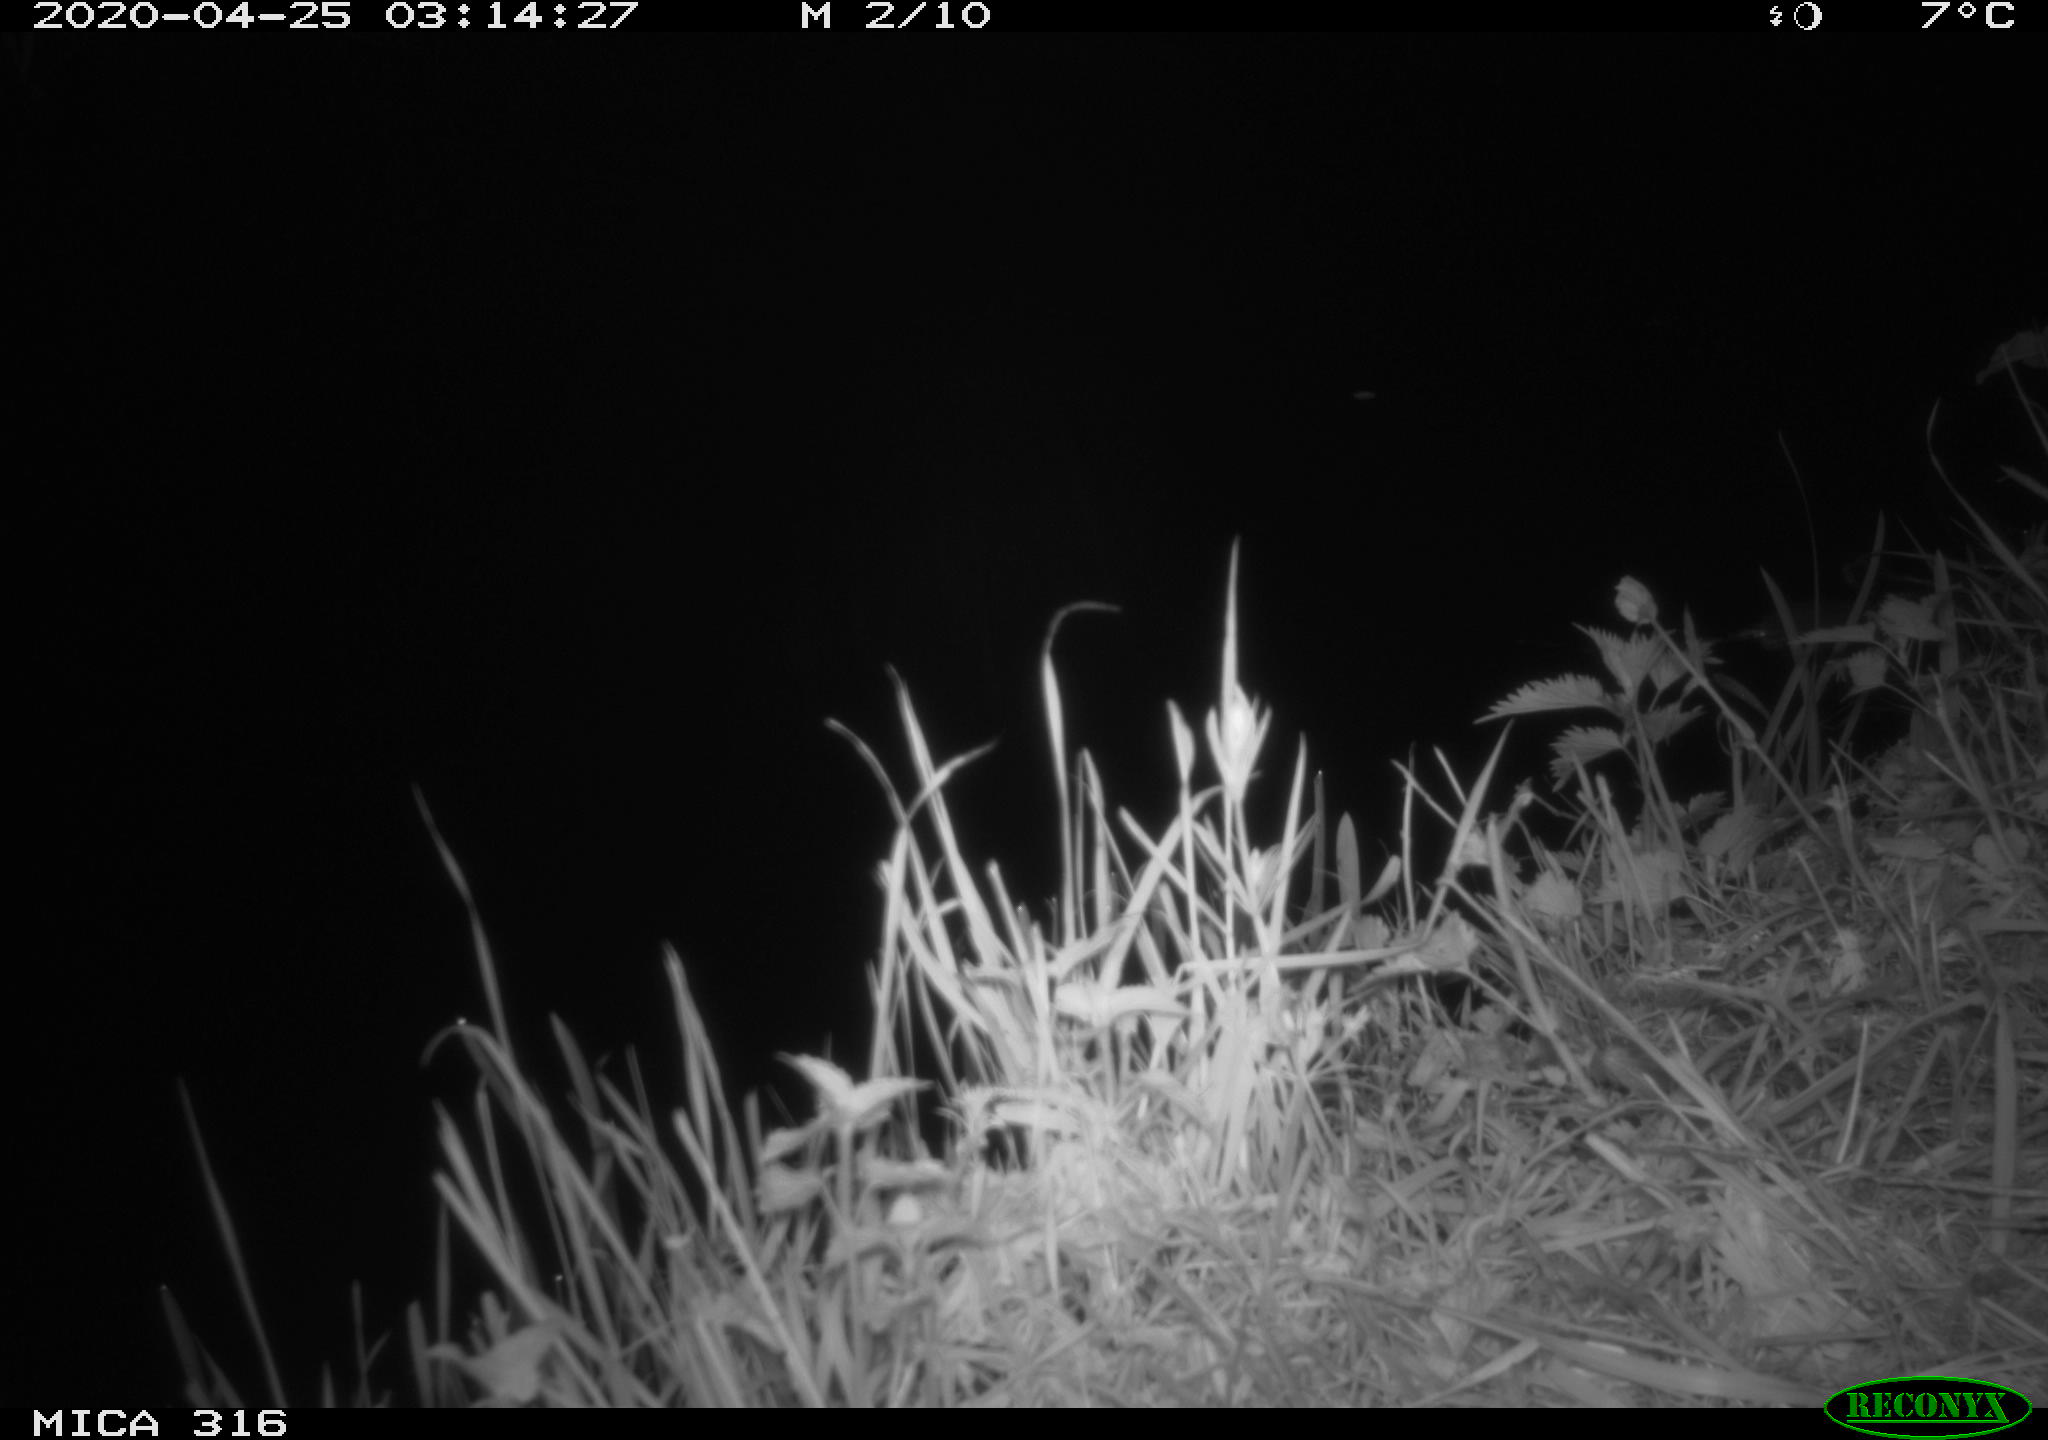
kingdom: Animalia
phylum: Chordata
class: Mammalia
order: Rodentia
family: Muridae
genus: Rattus
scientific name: Rattus norvegicus
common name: Brown rat
